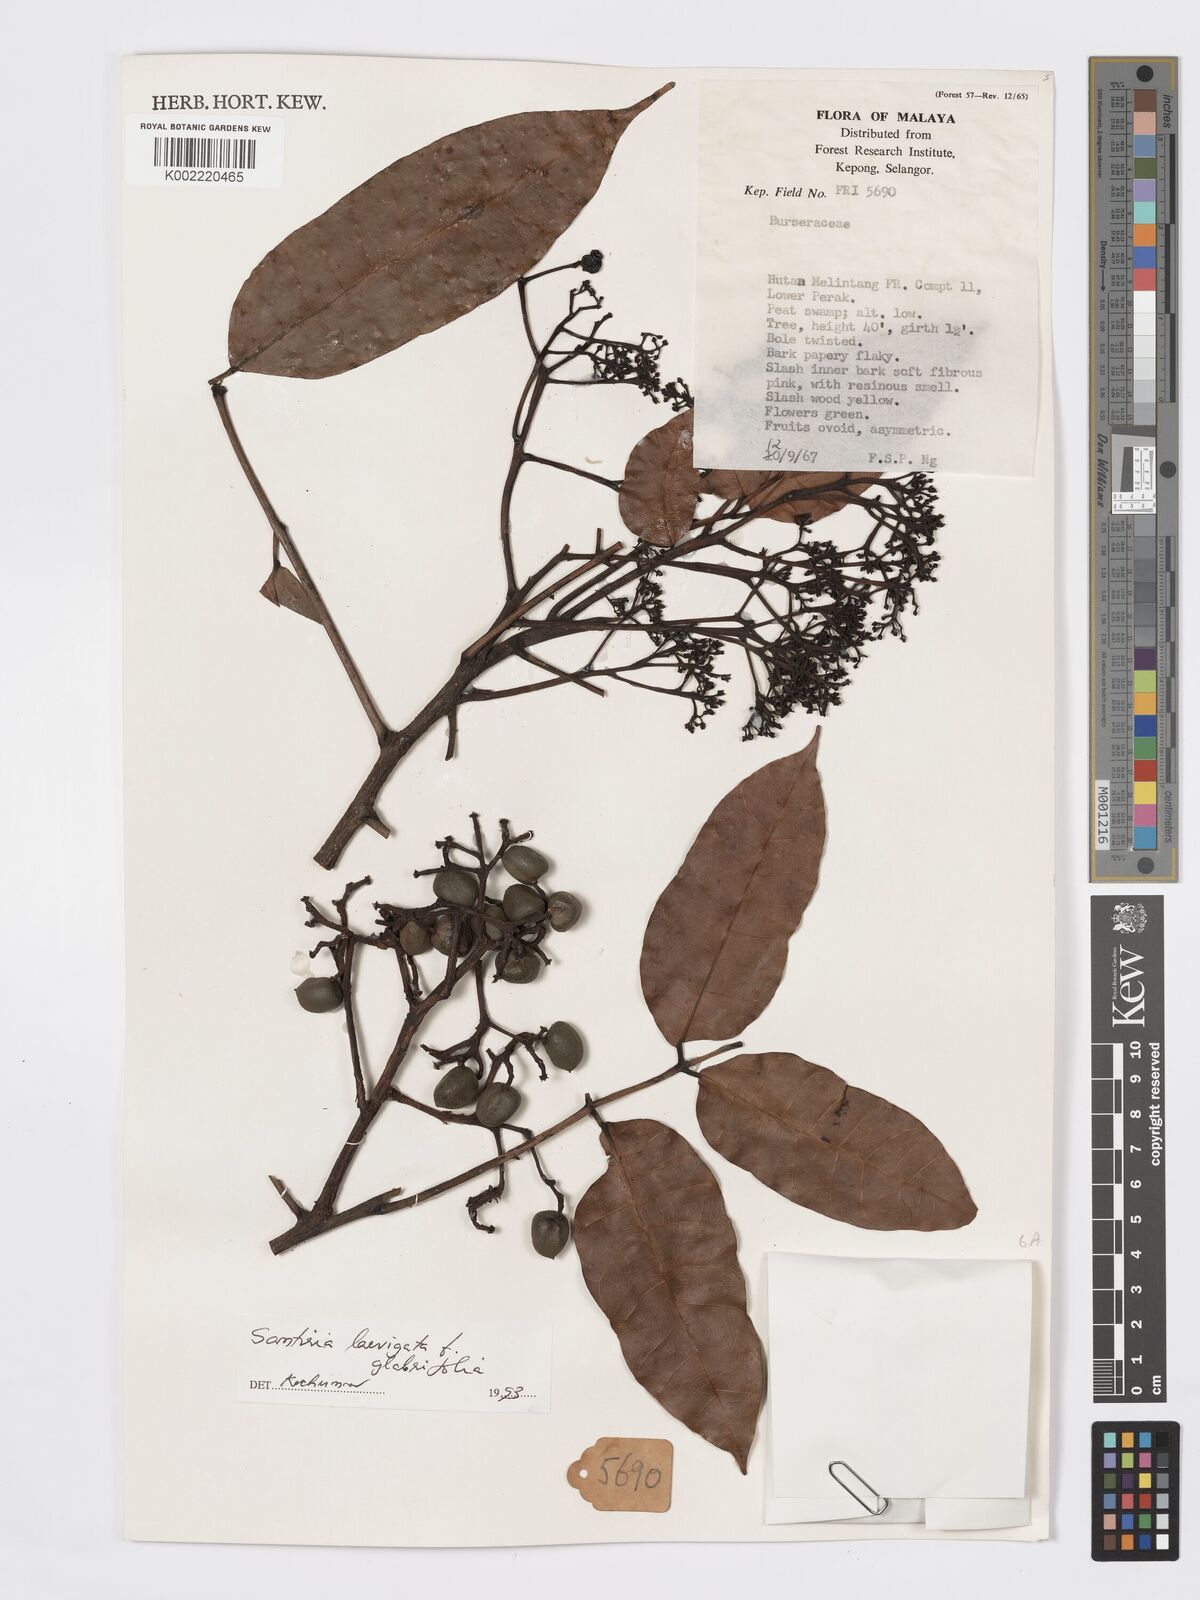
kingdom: Plantae
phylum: Tracheophyta
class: Magnoliopsida
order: Sapindales
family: Burseraceae
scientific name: Burseraceae
